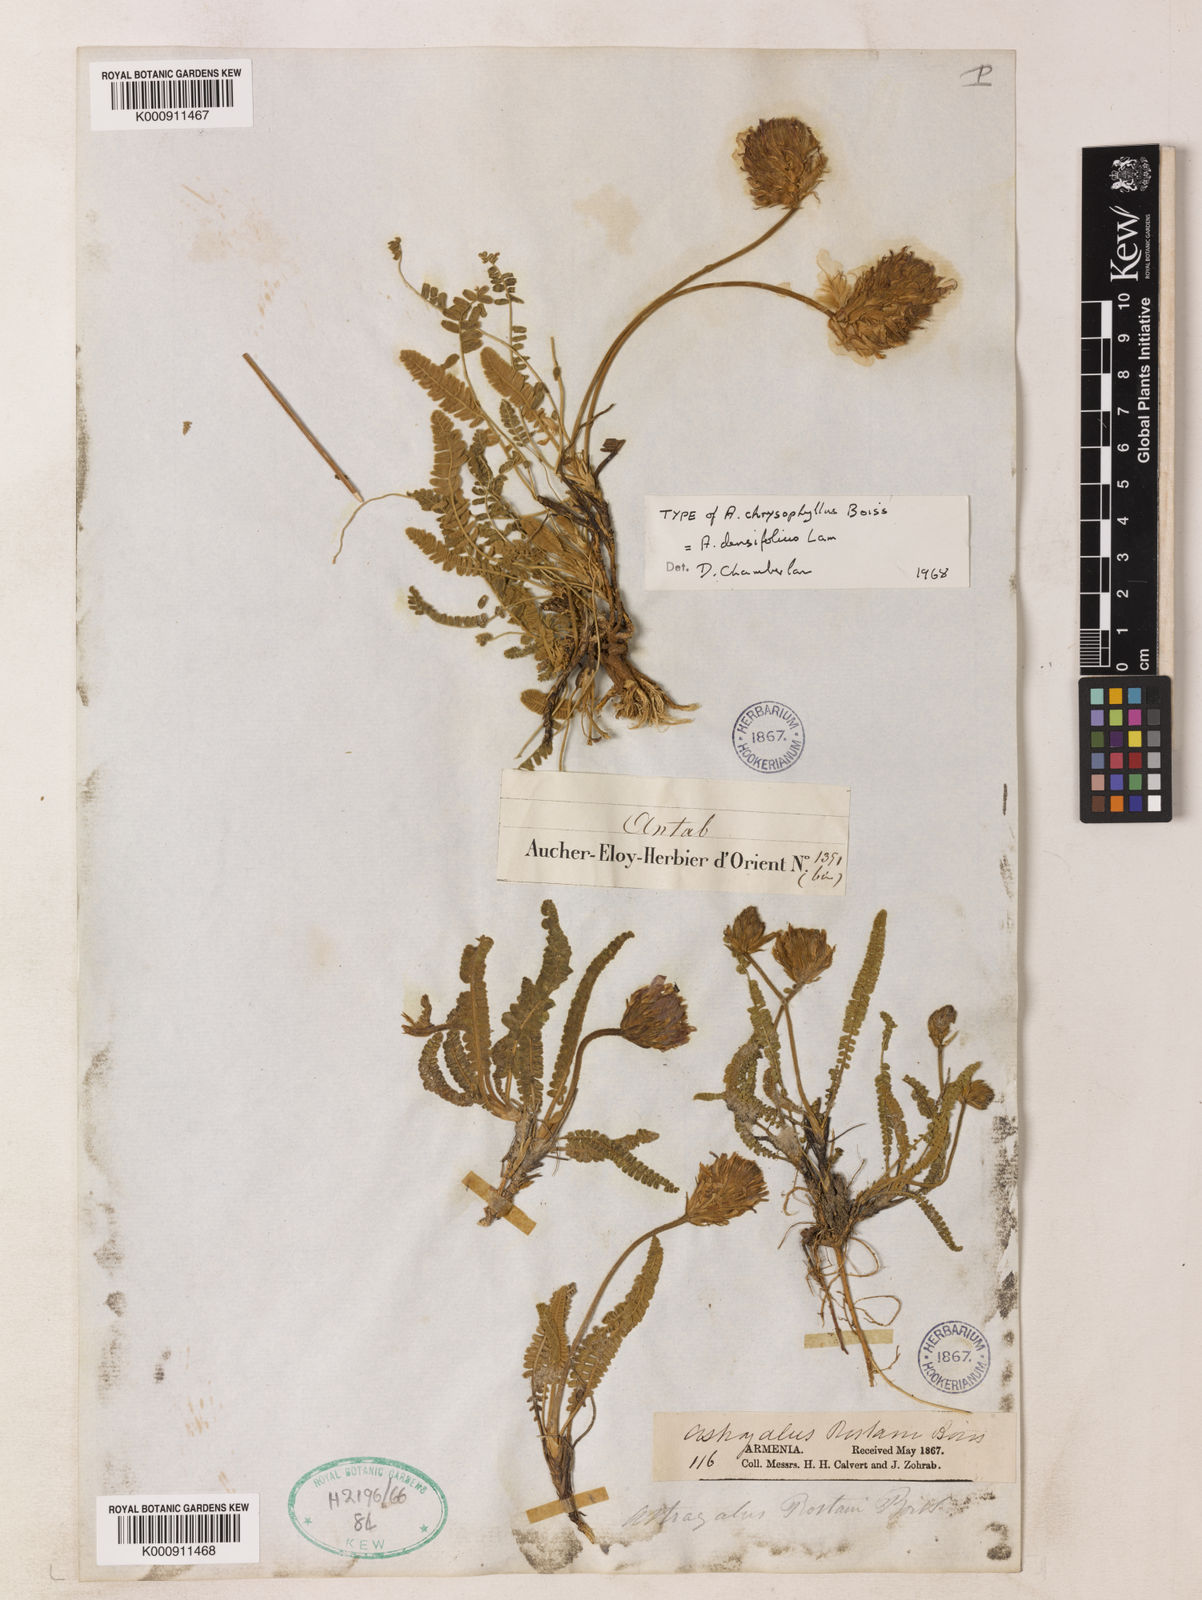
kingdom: Plantae
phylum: Tracheophyta
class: Magnoliopsida
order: Fabales
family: Fabaceae
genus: Astragalus
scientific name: Astragalus densifolius
